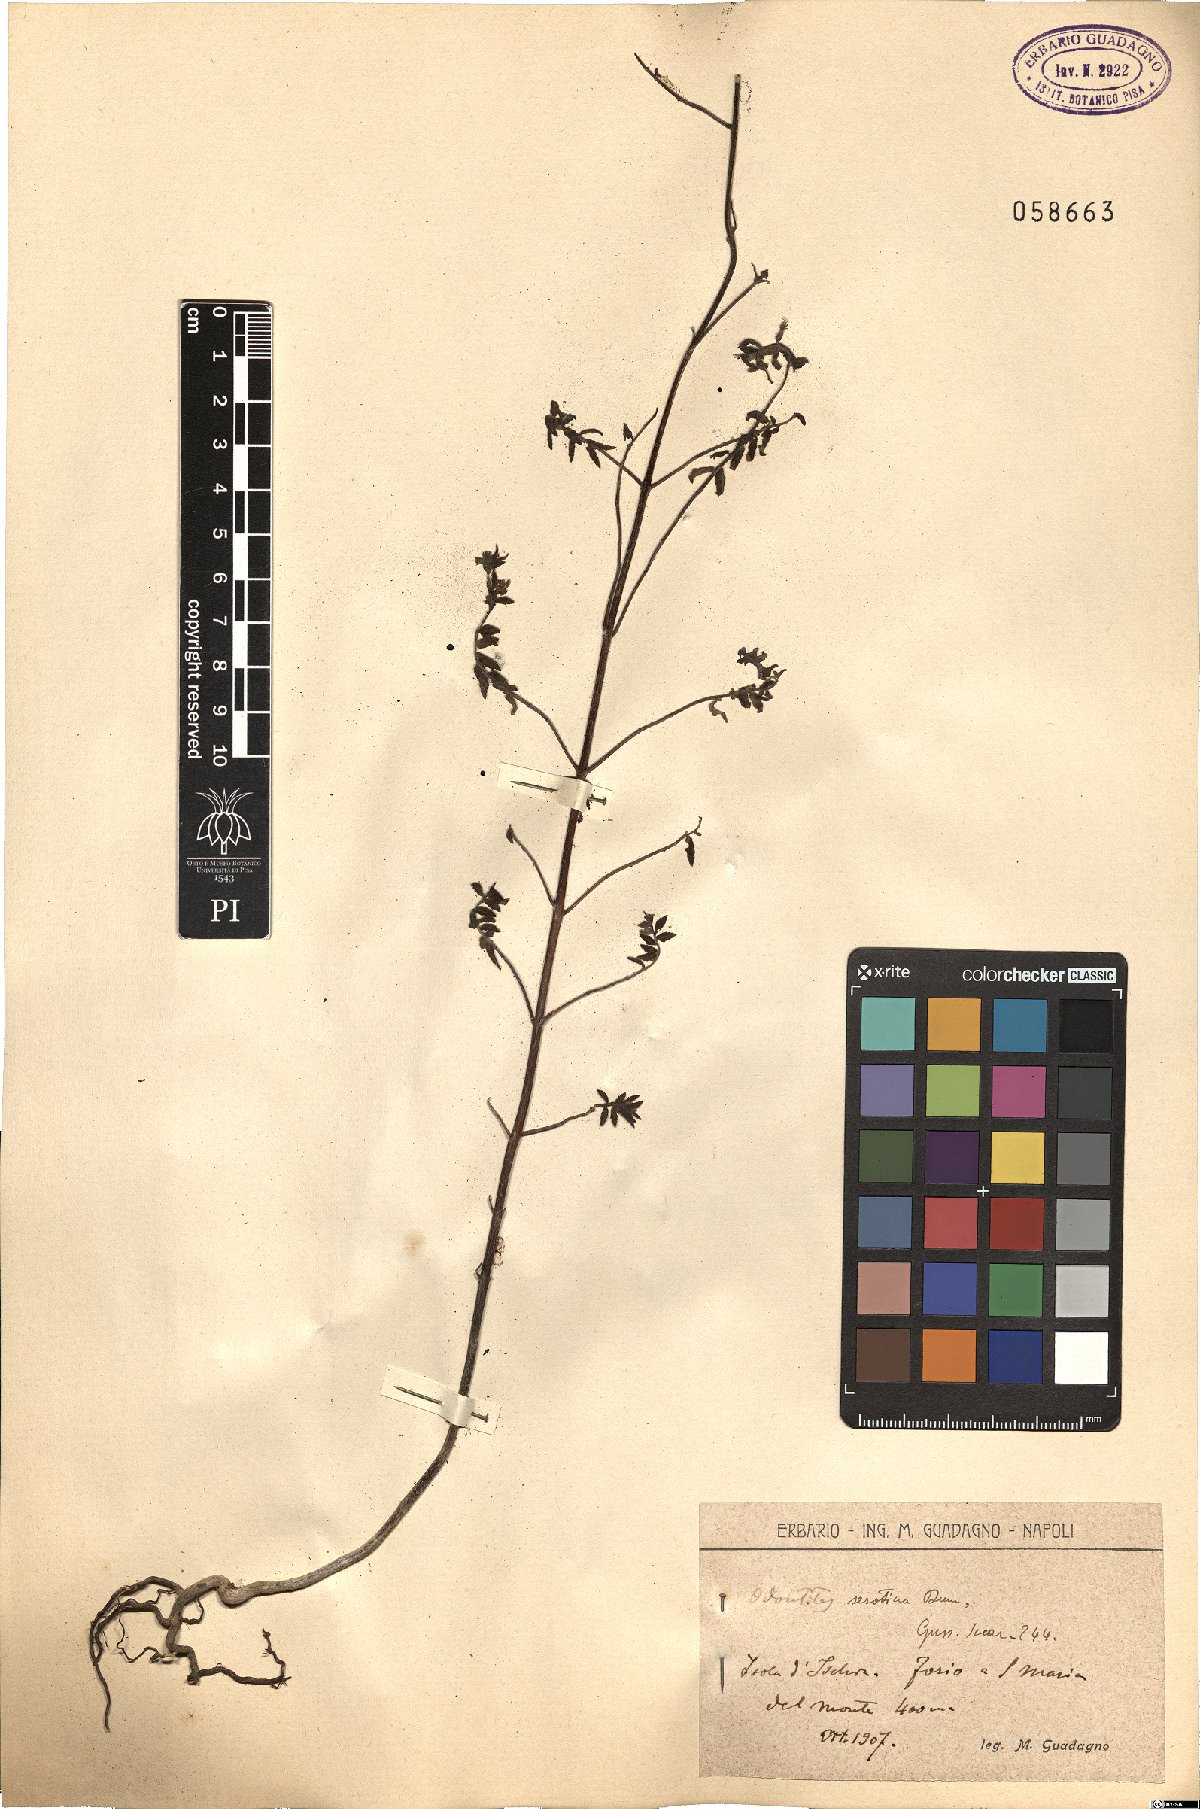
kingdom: Plantae
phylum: Tracheophyta
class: Magnoliopsida
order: Lamiales
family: Orobanchaceae
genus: Odontites
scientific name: Odontites vulgaris
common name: Broomrape
